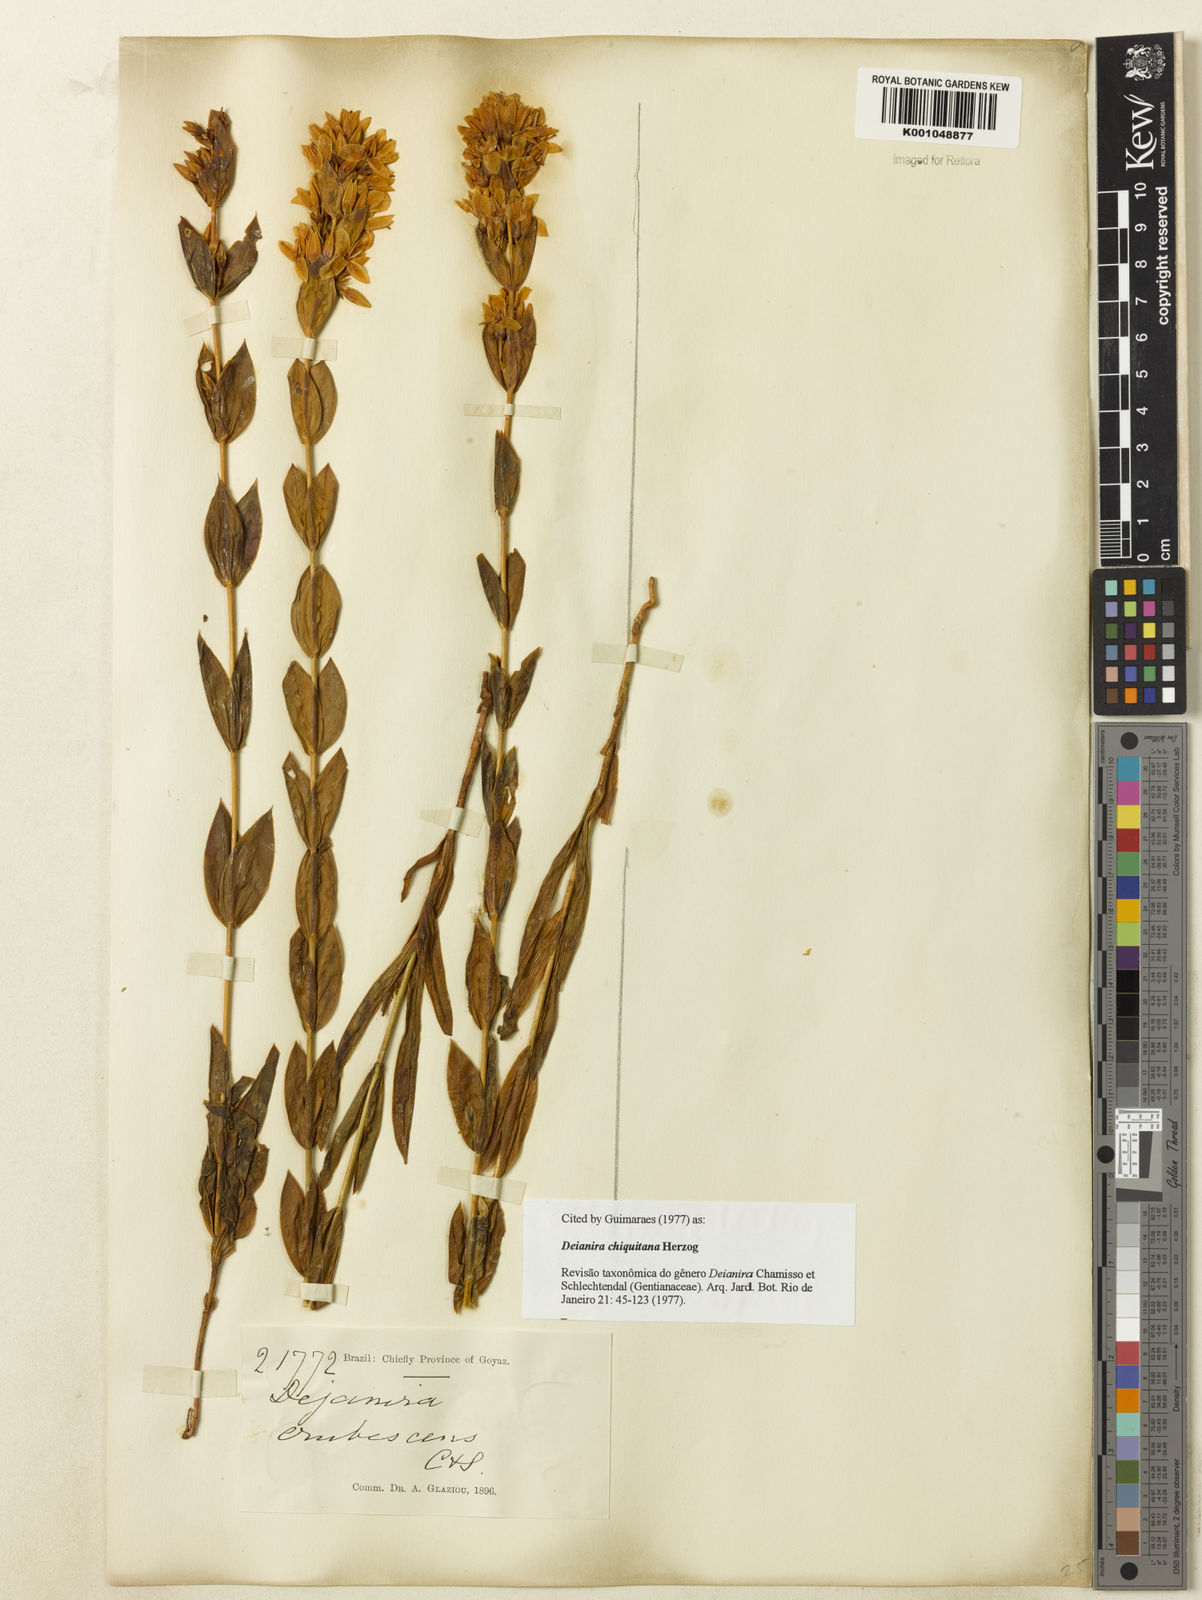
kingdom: Plantae
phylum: Tracheophyta
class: Magnoliopsida
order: Gentianales
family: Gentianaceae
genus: Deianira
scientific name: Deianira chiquitana
